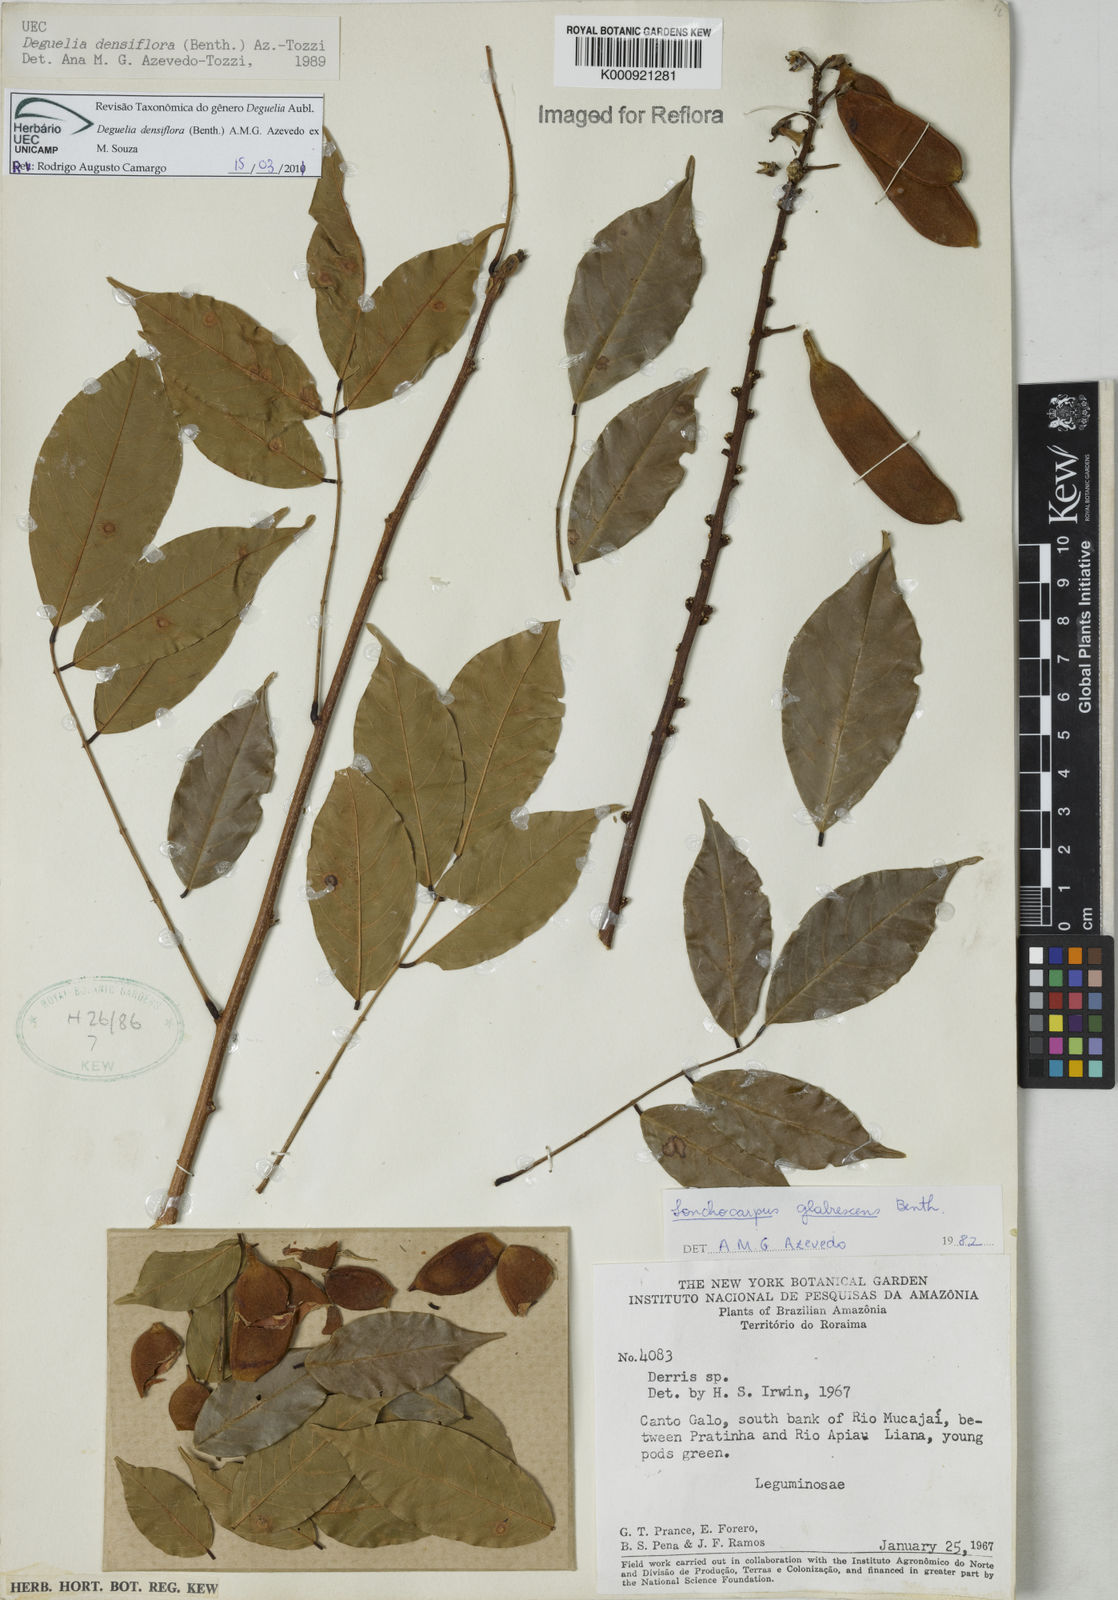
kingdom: Plantae
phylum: Tracheophyta
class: Magnoliopsida
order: Fabales
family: Fabaceae
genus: Deguelia
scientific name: Deguelia
